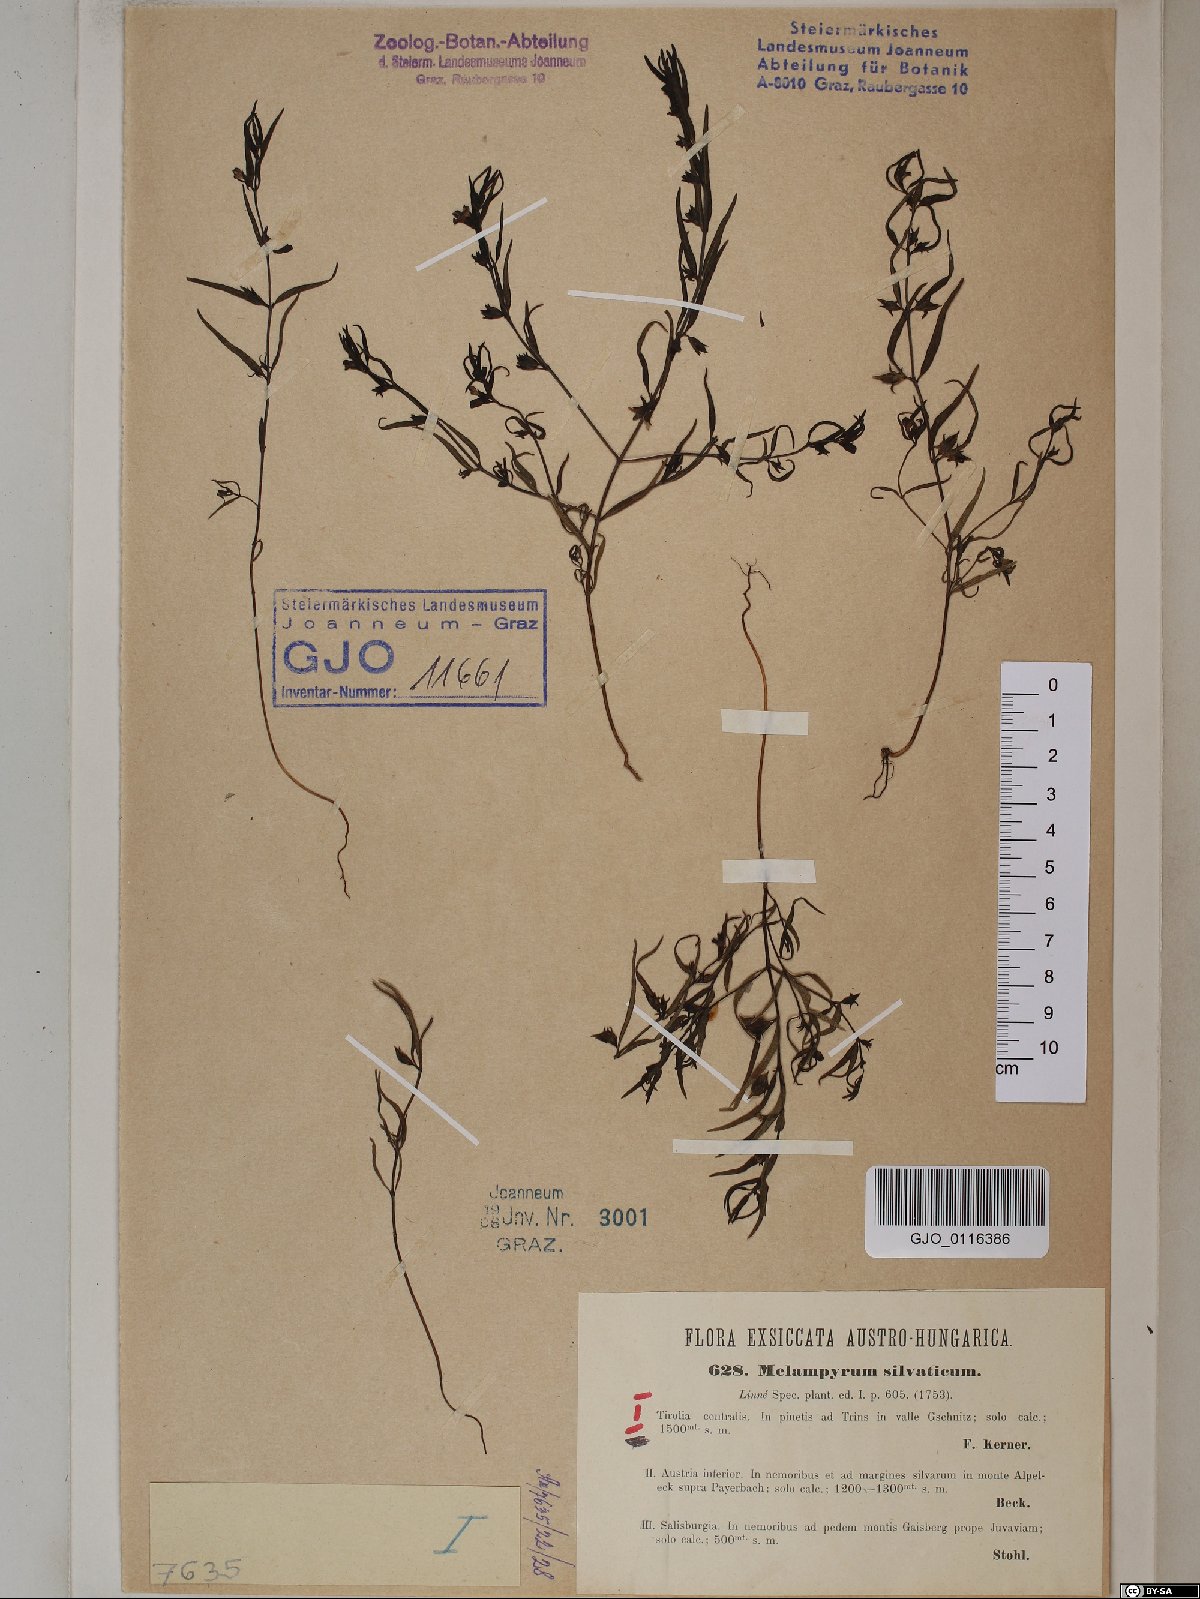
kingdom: Plantae
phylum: Tracheophyta
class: Magnoliopsida
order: Lamiales
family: Orobanchaceae
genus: Melampyrum
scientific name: Melampyrum sylvaticum
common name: Small cow-wheat
